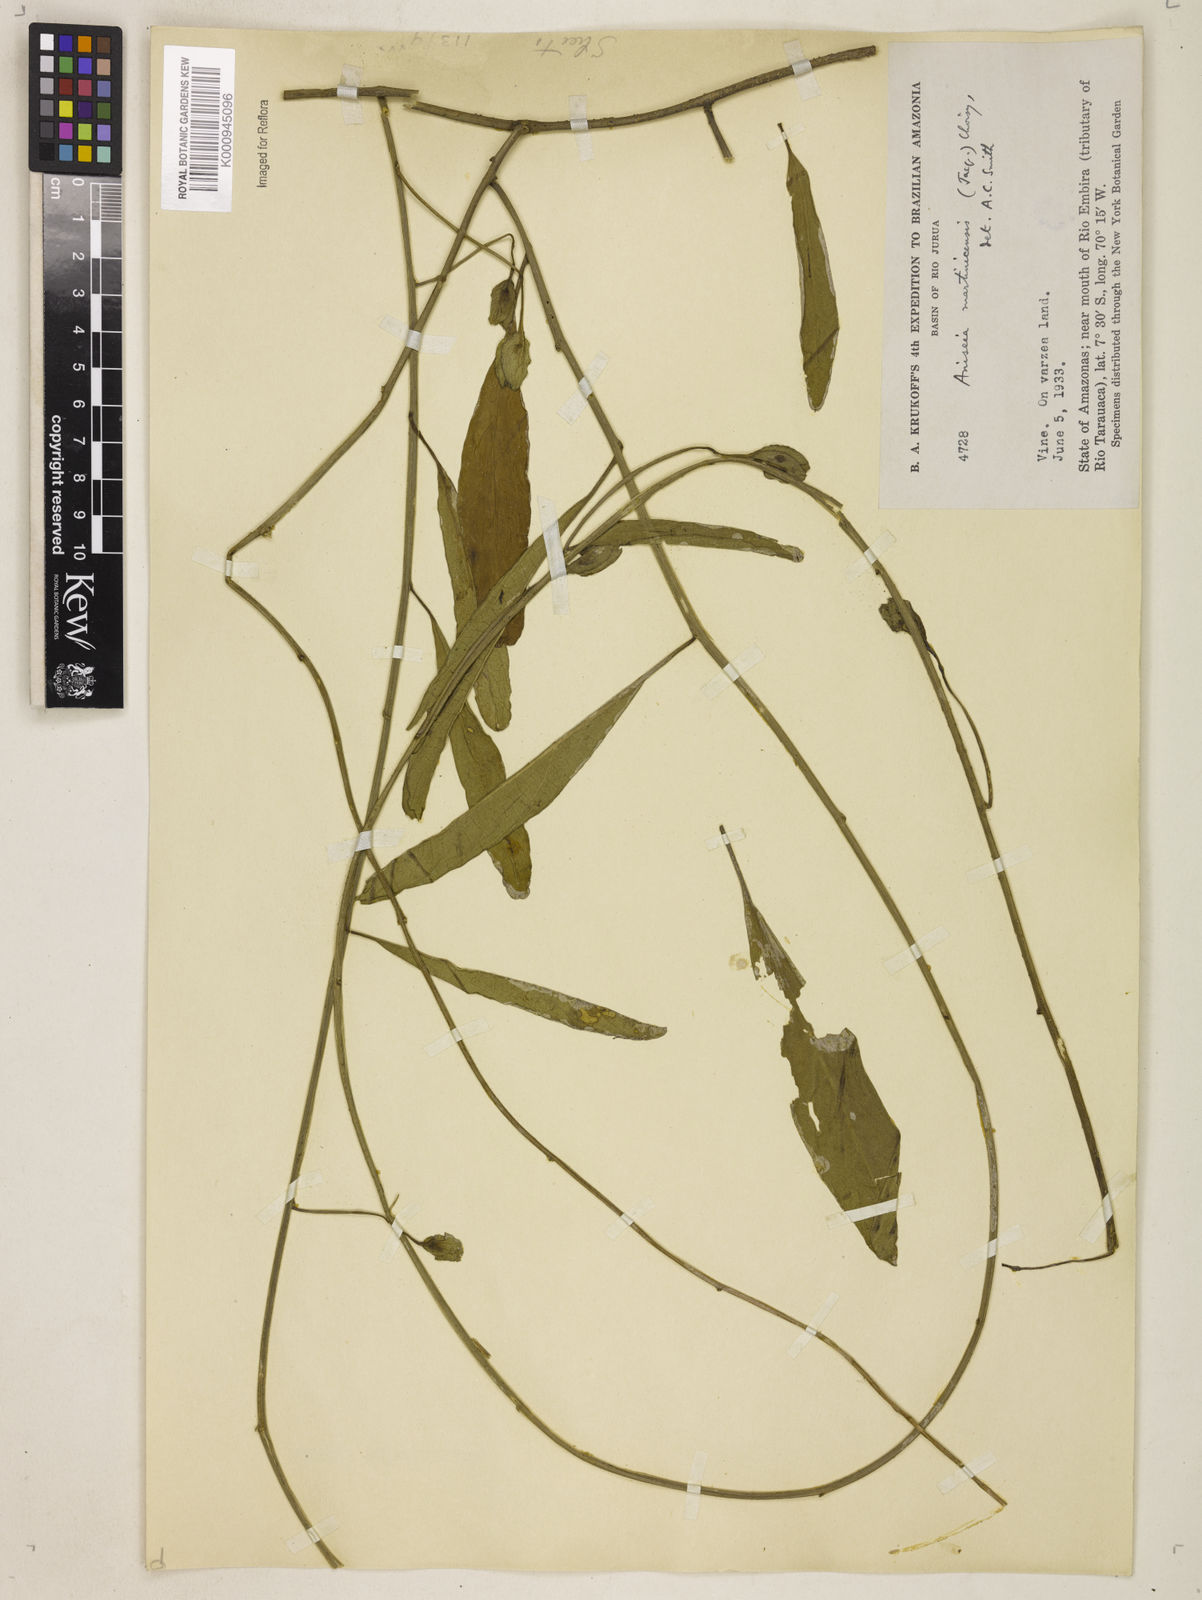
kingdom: Plantae
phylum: Tracheophyta
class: Magnoliopsida
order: Solanales
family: Convolvulaceae
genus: Aniseia
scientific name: Aniseia martinicensis
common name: Kulayadambu
